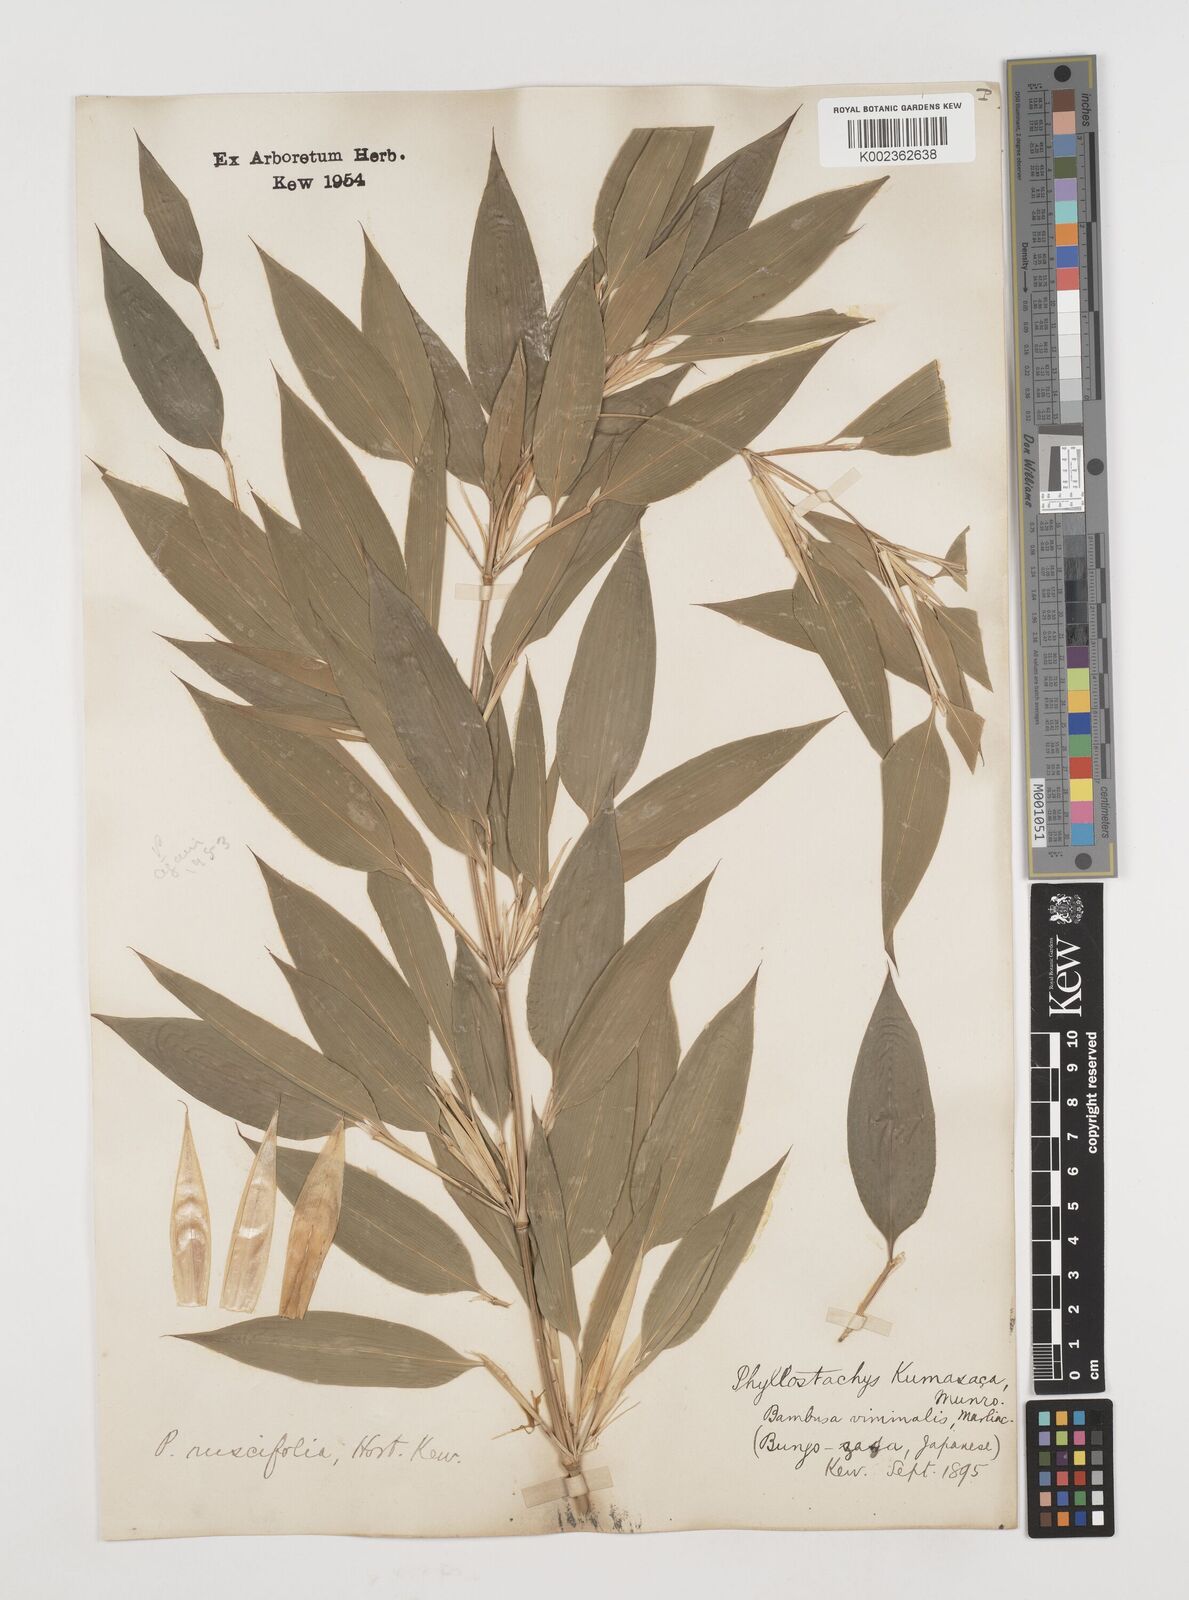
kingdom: Plantae
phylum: Tracheophyta
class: Liliopsida
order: Poales
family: Poaceae
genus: Shibataea
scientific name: Shibataea kumasasa
